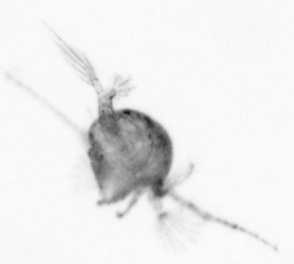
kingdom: Animalia
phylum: Arthropoda
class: Copepoda
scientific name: Copepoda
